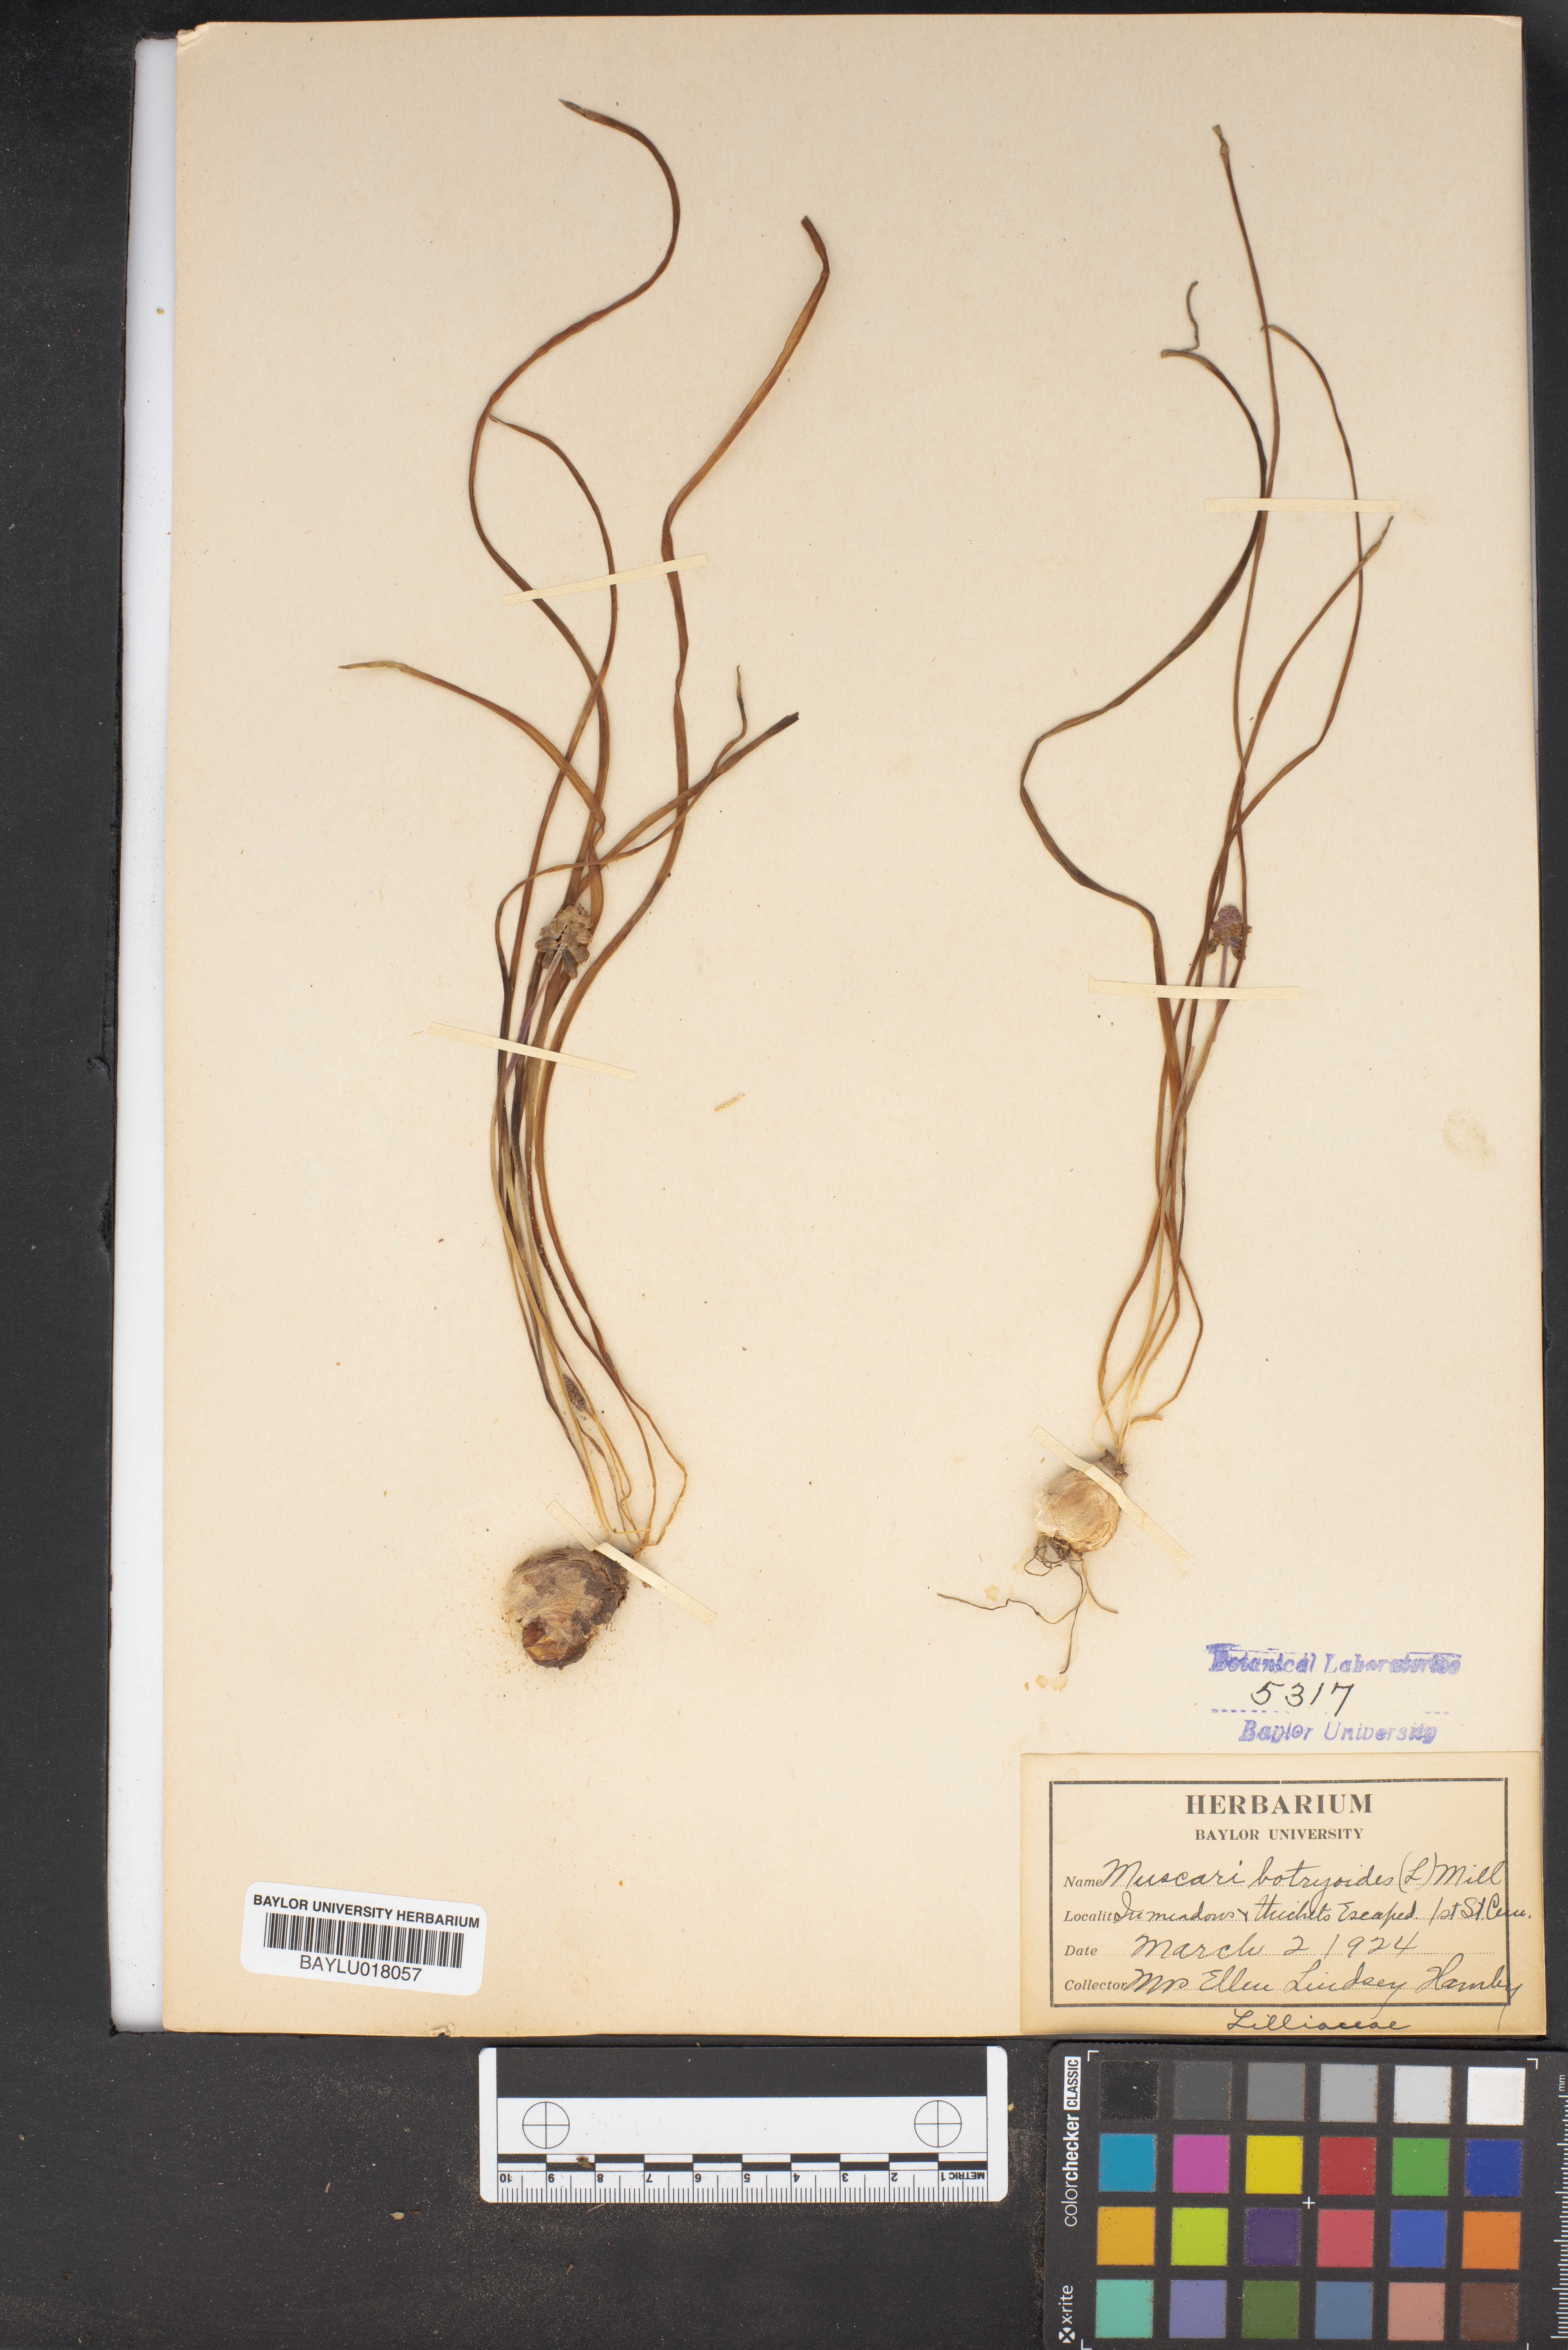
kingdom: Plantae
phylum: Tracheophyta
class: Liliopsida
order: Asparagales
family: Asparagaceae
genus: Muscari
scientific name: Muscari botryoides
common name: Compact grape-hyacinth
